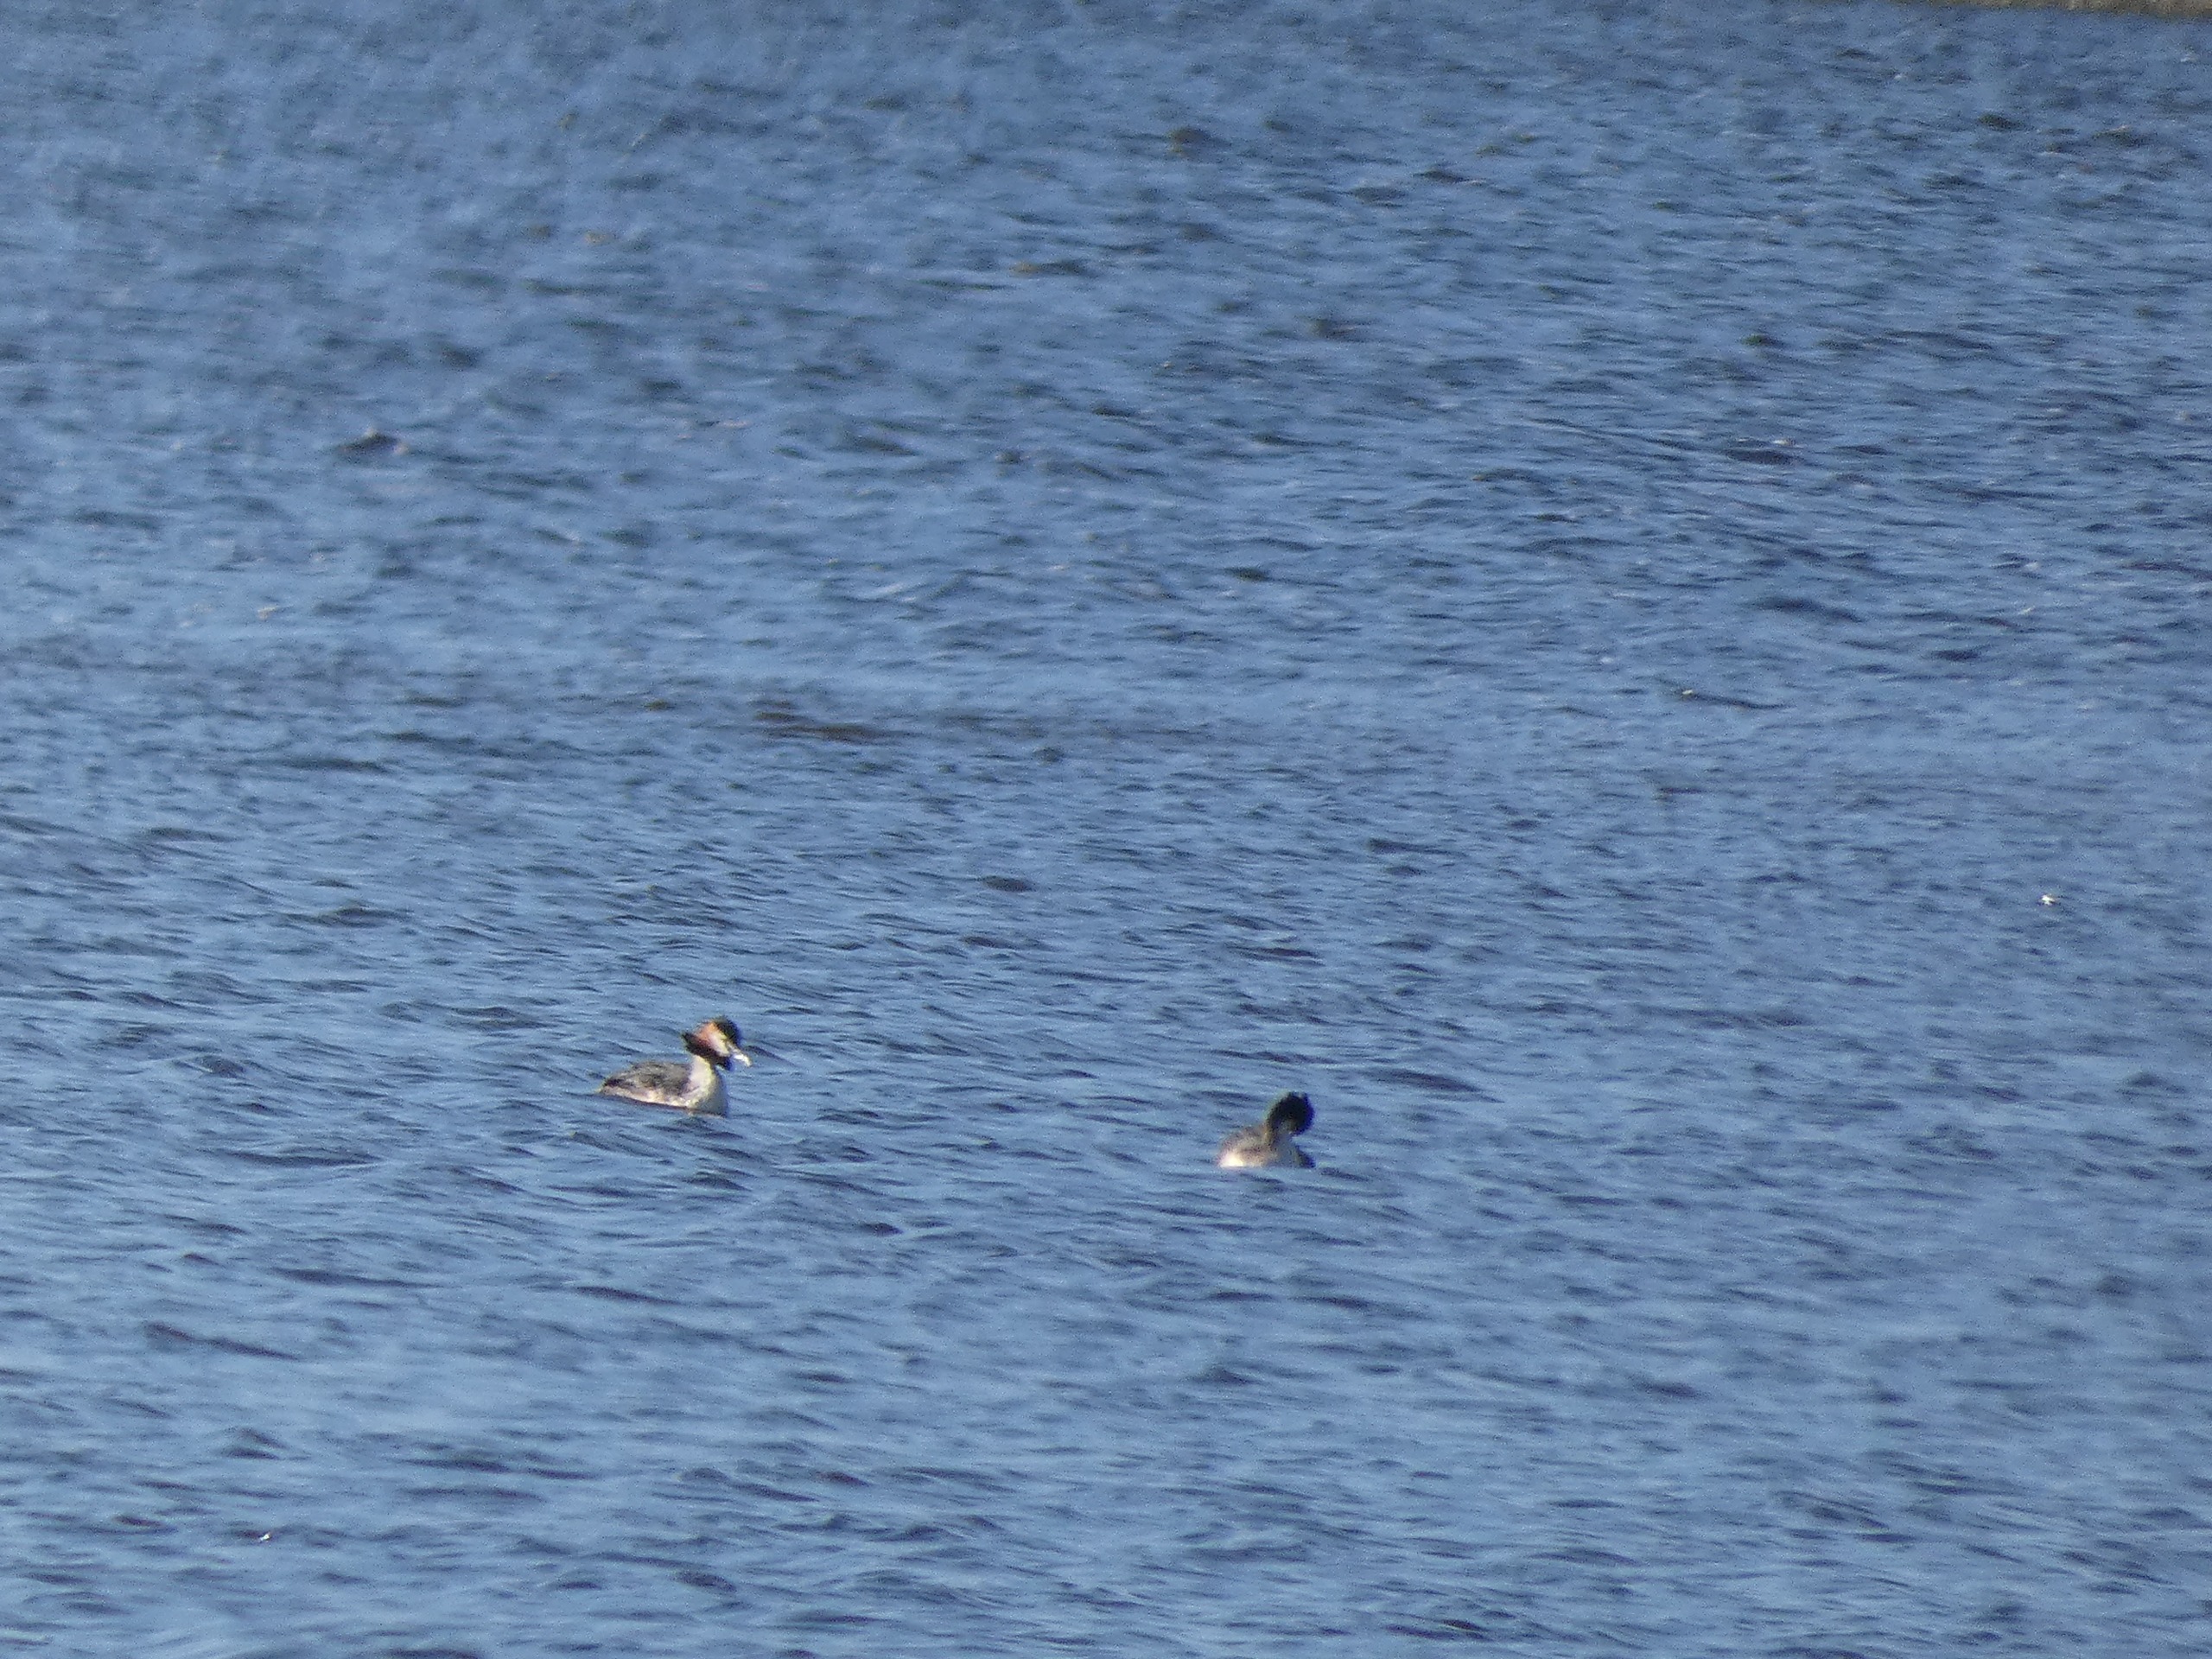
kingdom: Animalia
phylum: Chordata
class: Aves
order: Podicipediformes
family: Podicipedidae
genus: Podiceps
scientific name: Podiceps cristatus
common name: Toppet lappedykker
